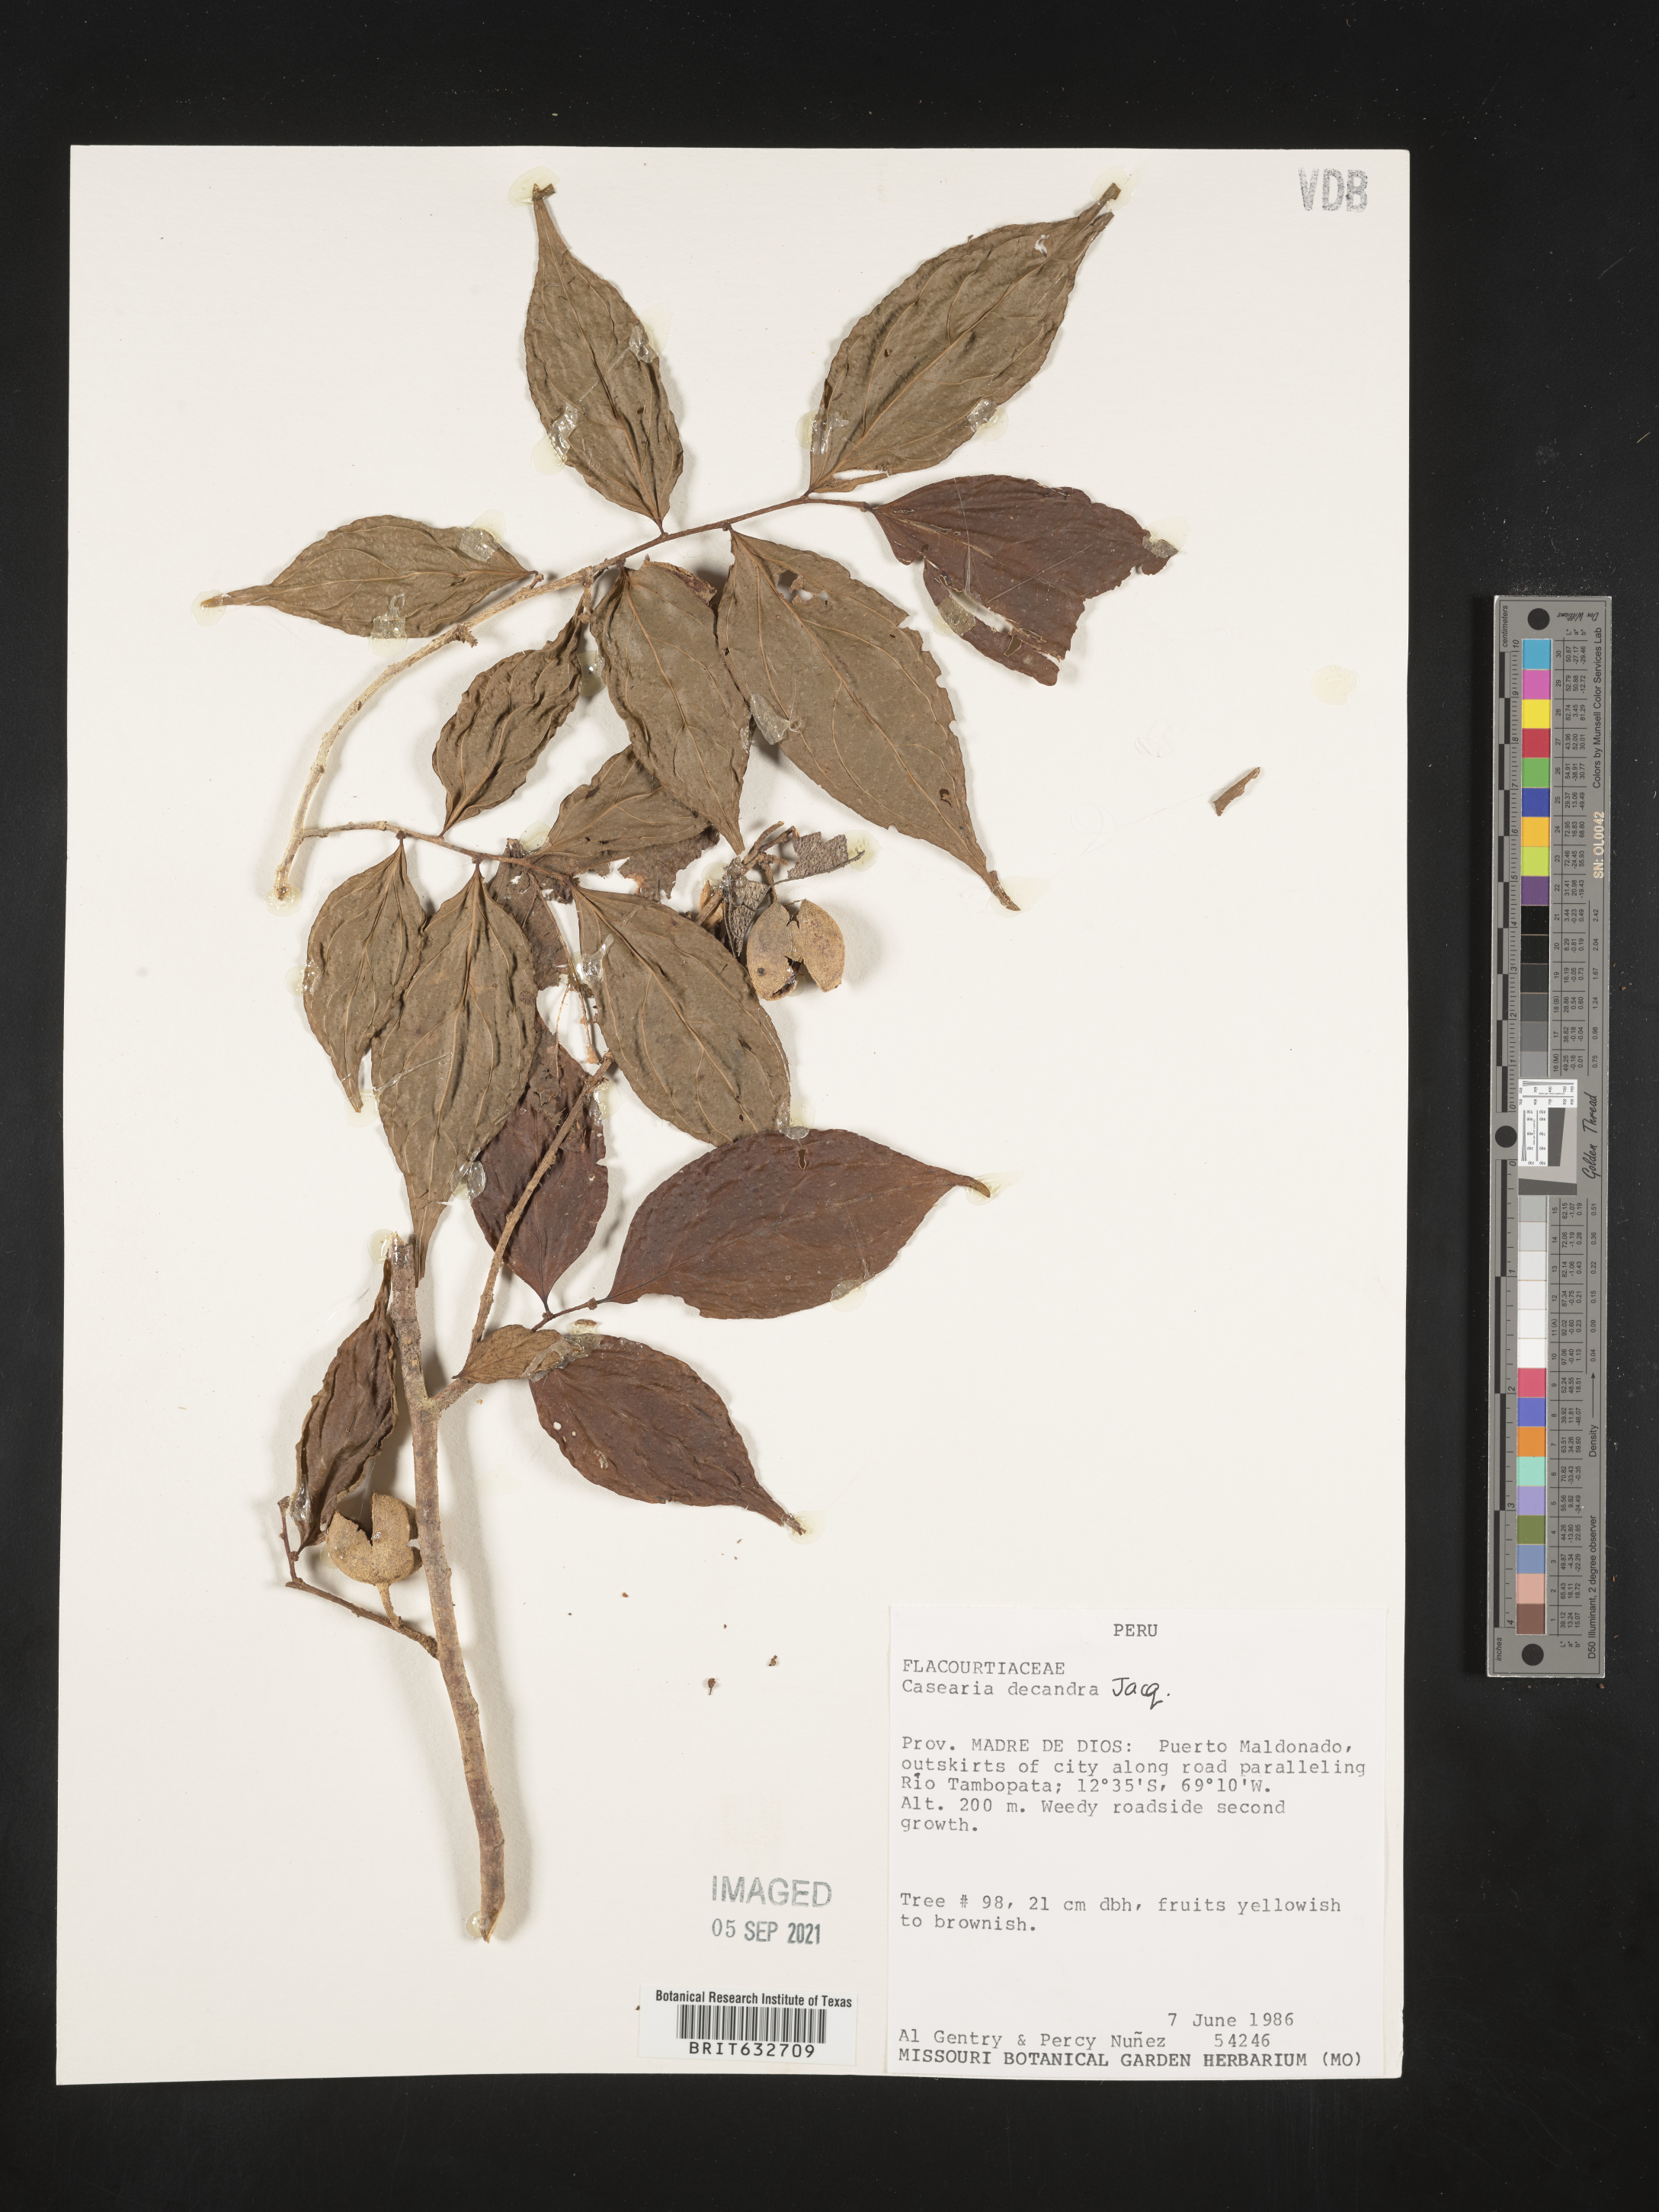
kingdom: Plantae
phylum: Tracheophyta
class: Magnoliopsida
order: Malpighiales
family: Salicaceae
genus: Casearia
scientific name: Casearia
